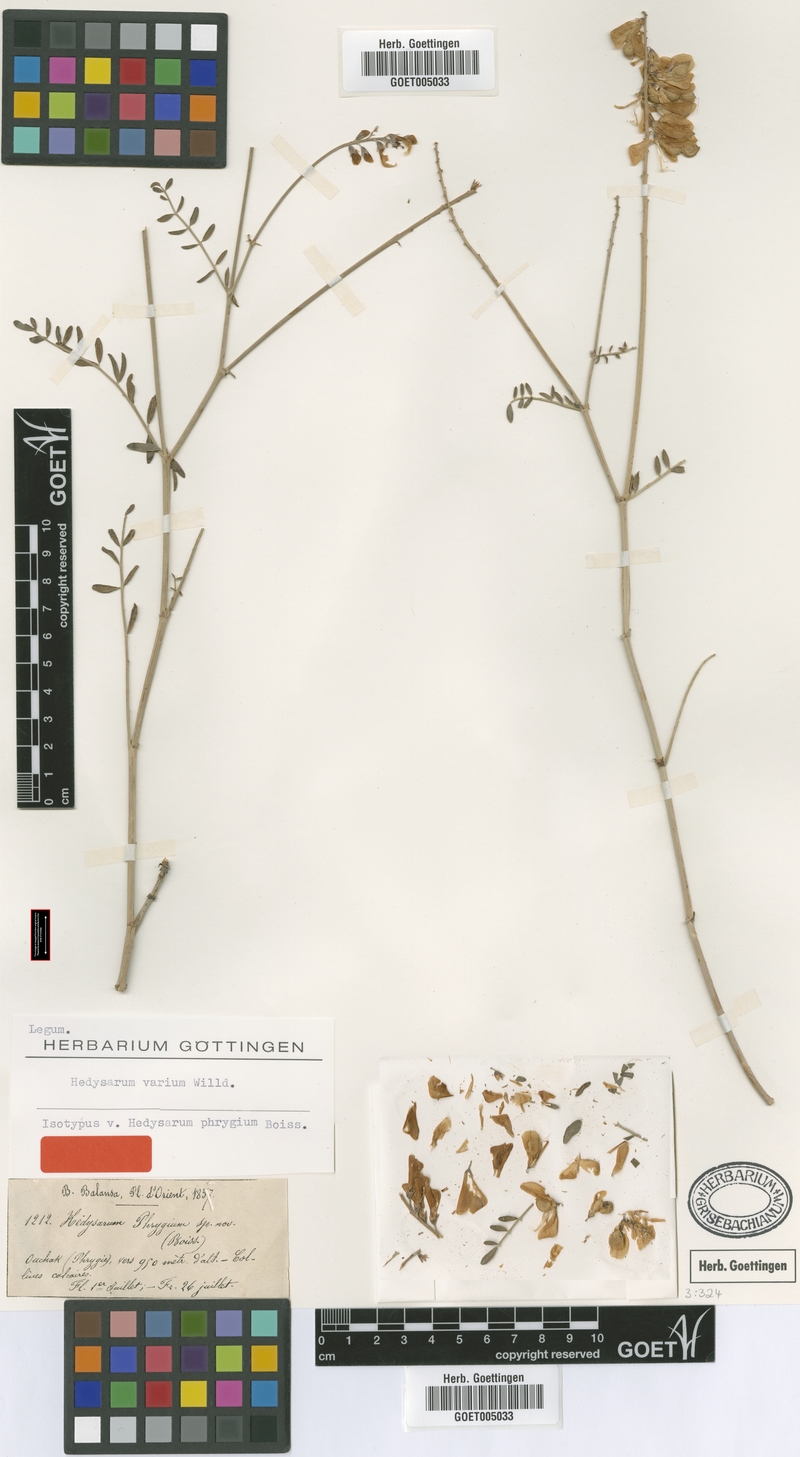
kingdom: Plantae
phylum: Tracheophyta
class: Magnoliopsida
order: Fabales
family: Fabaceae
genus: Hedysarum
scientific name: Hedysarum varium
